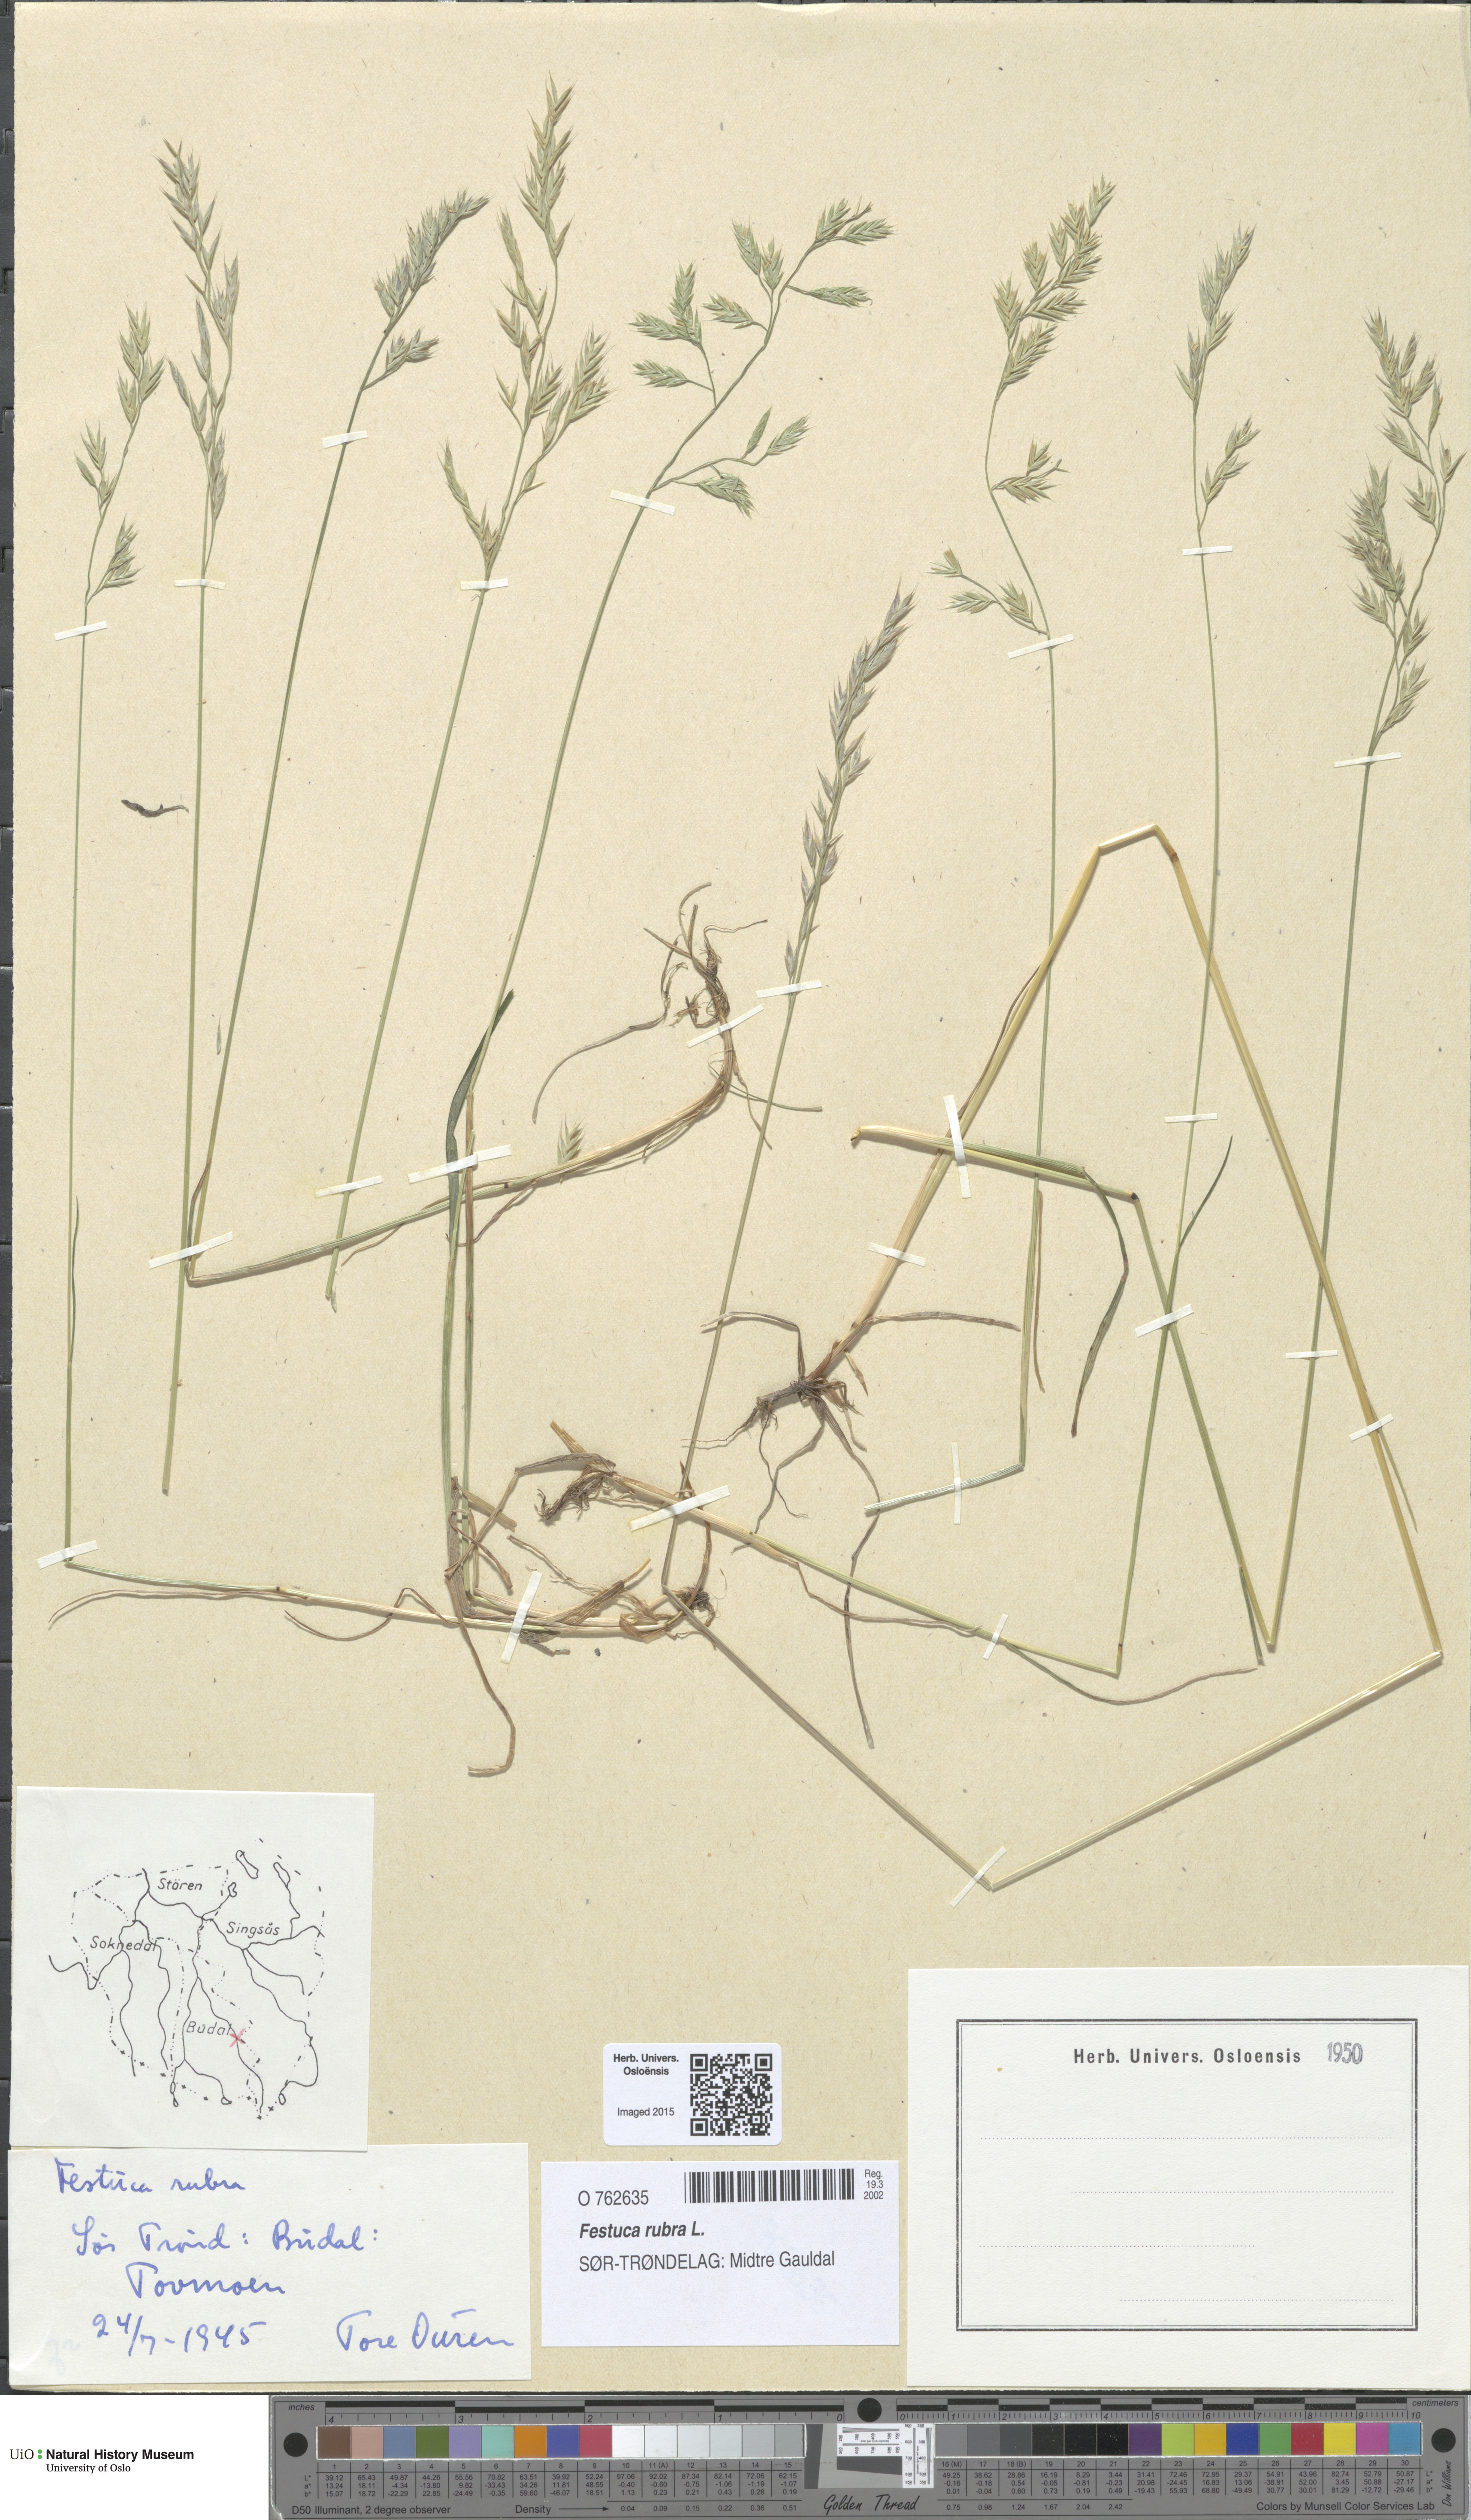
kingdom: Plantae
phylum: Tracheophyta
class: Liliopsida
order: Poales
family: Poaceae
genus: Festuca
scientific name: Festuca rubra
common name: Red fescue
